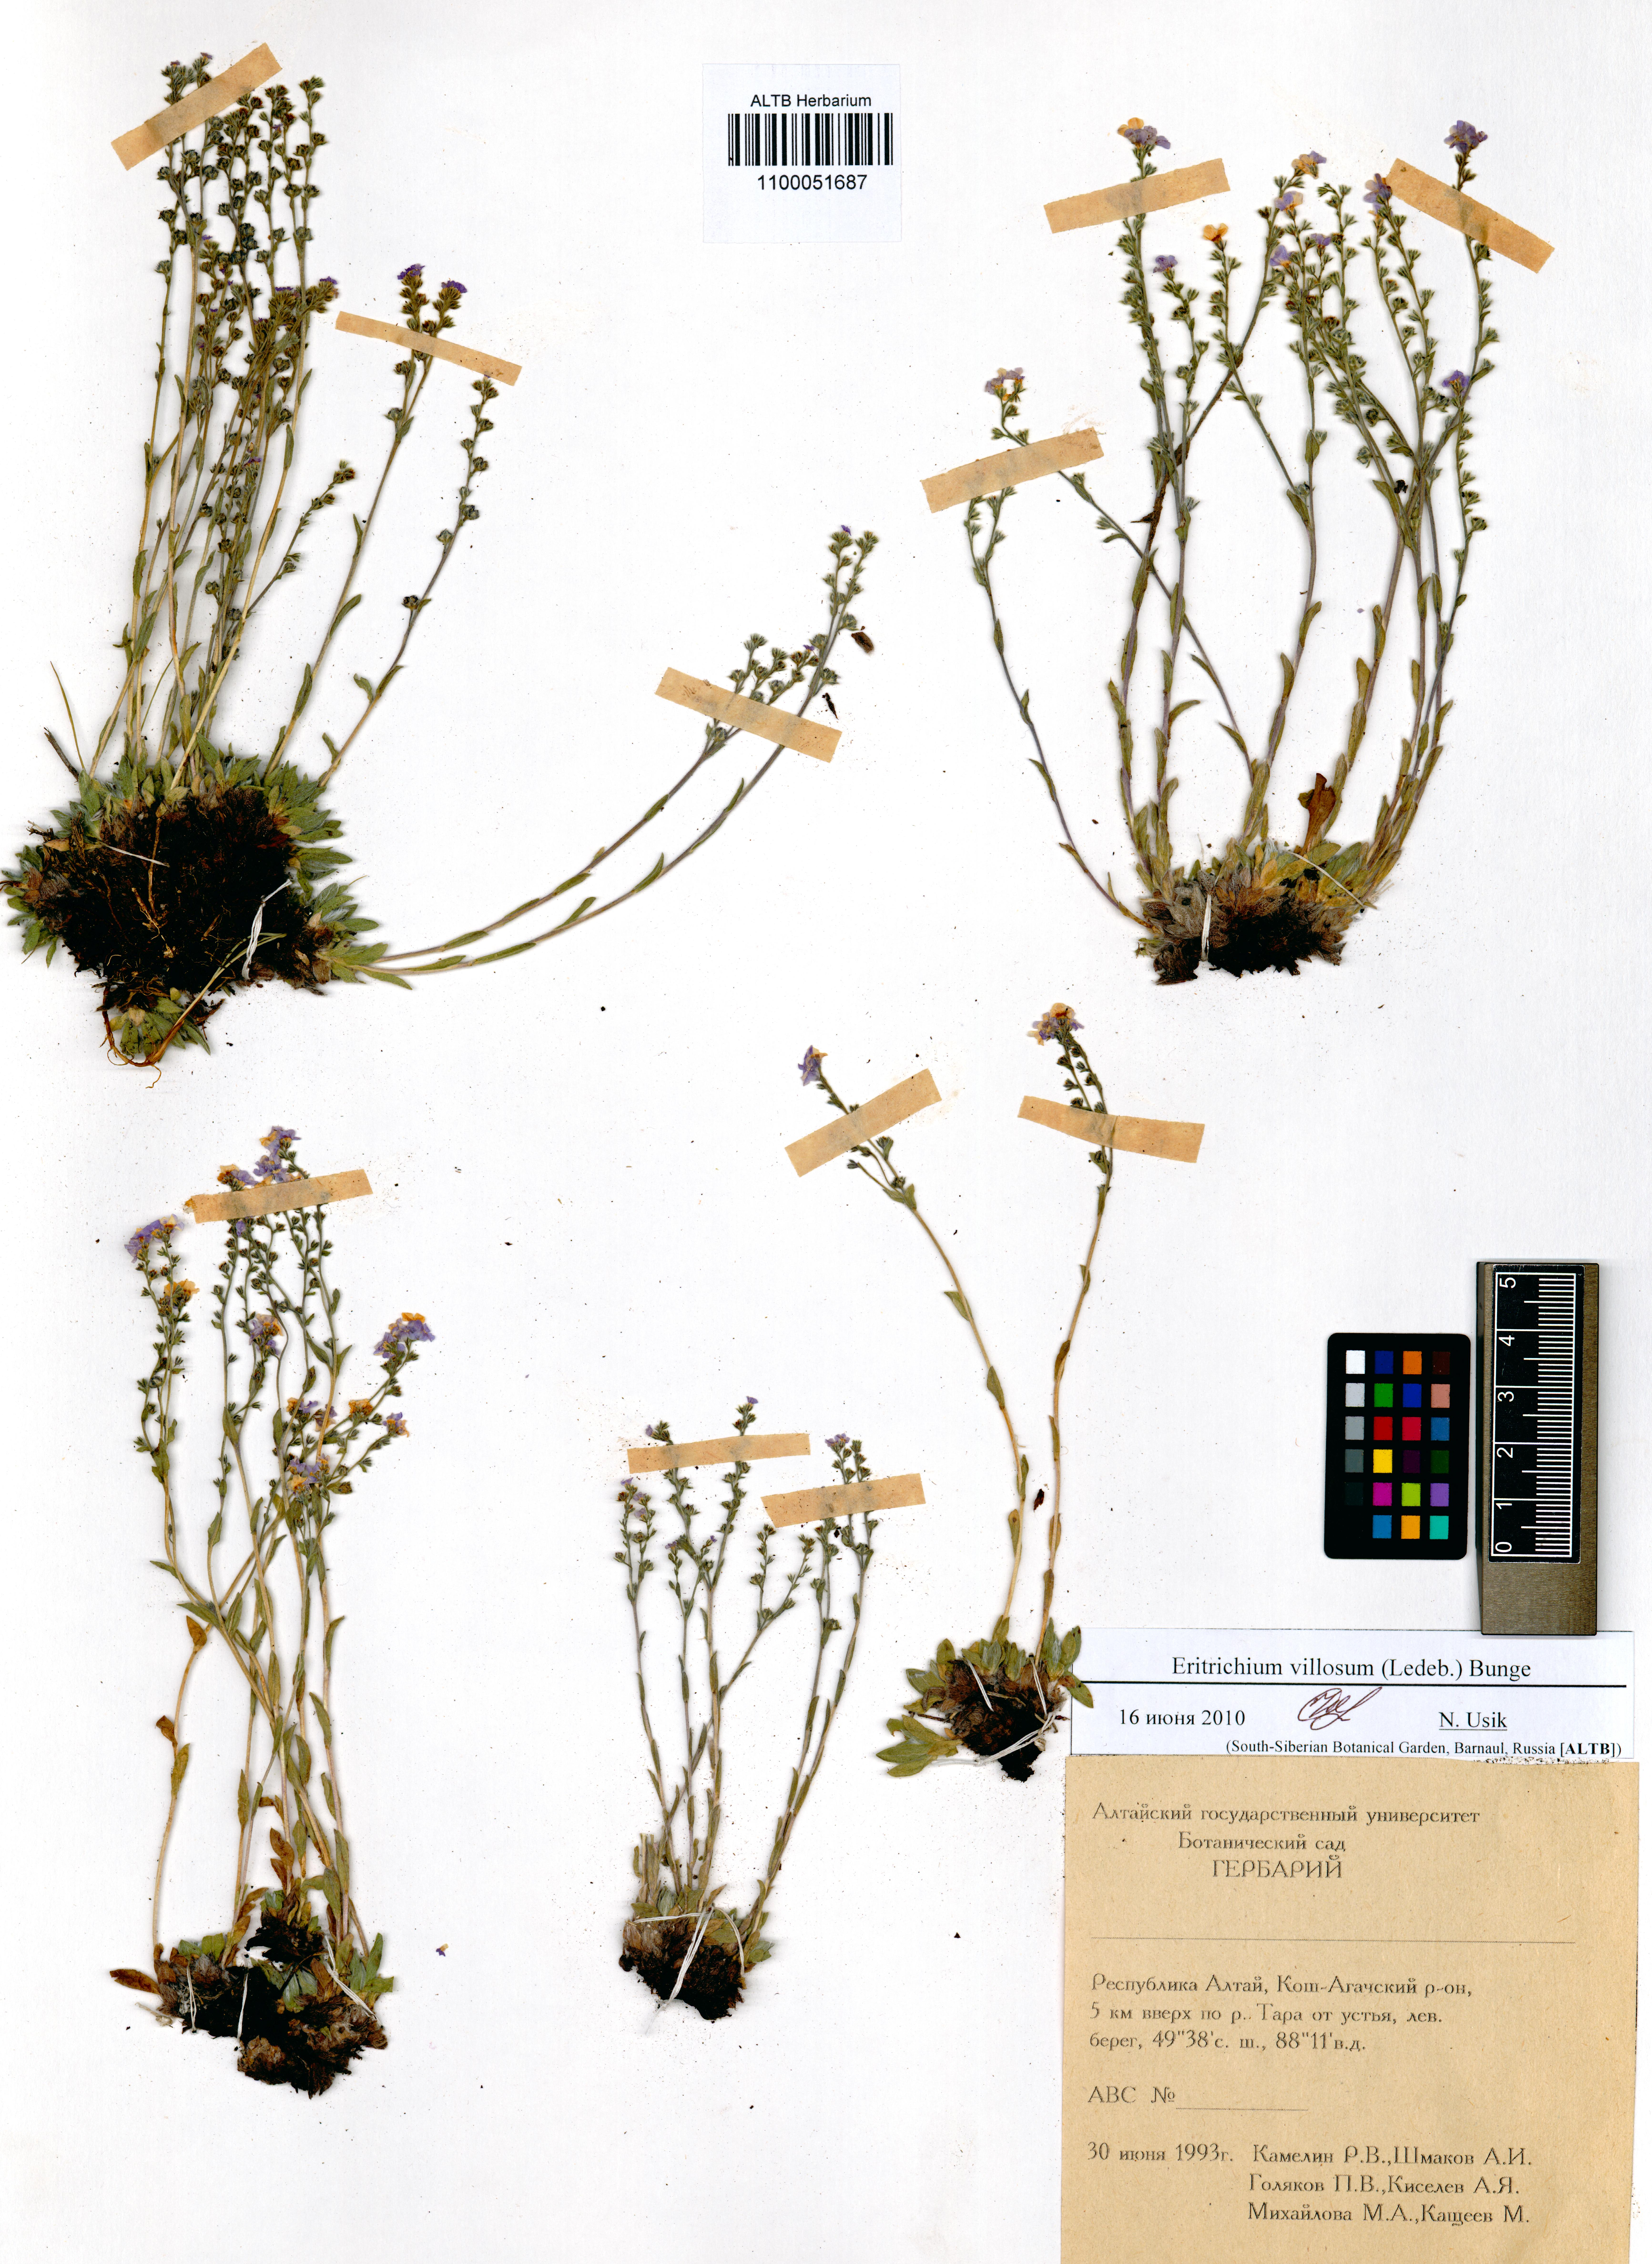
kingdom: Plantae
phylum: Tracheophyta
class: Magnoliopsida
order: Boraginales
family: Boraginaceae
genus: Eritrichium
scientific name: Eritrichium villosum
